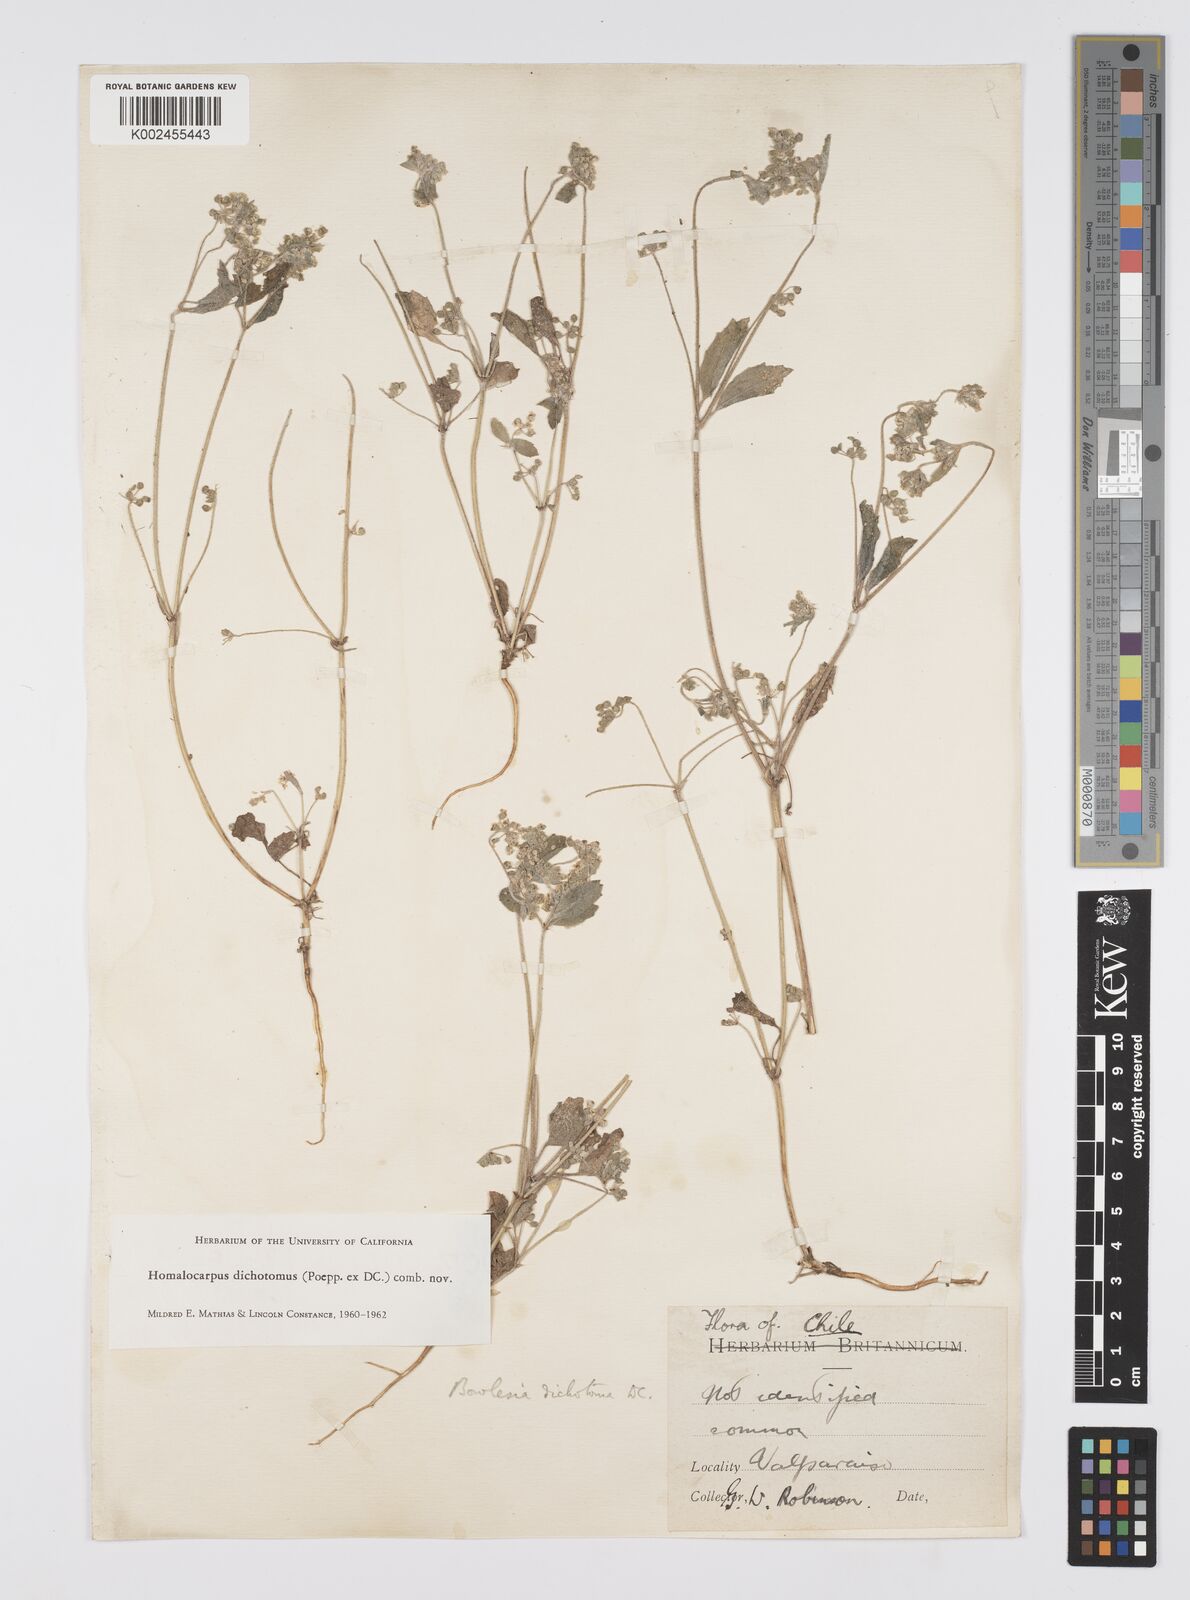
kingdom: Plantae
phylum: Tracheophyta
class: Magnoliopsida
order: Apiales
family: Apiaceae
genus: Homalocarpus
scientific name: Homalocarpus dichotomus
